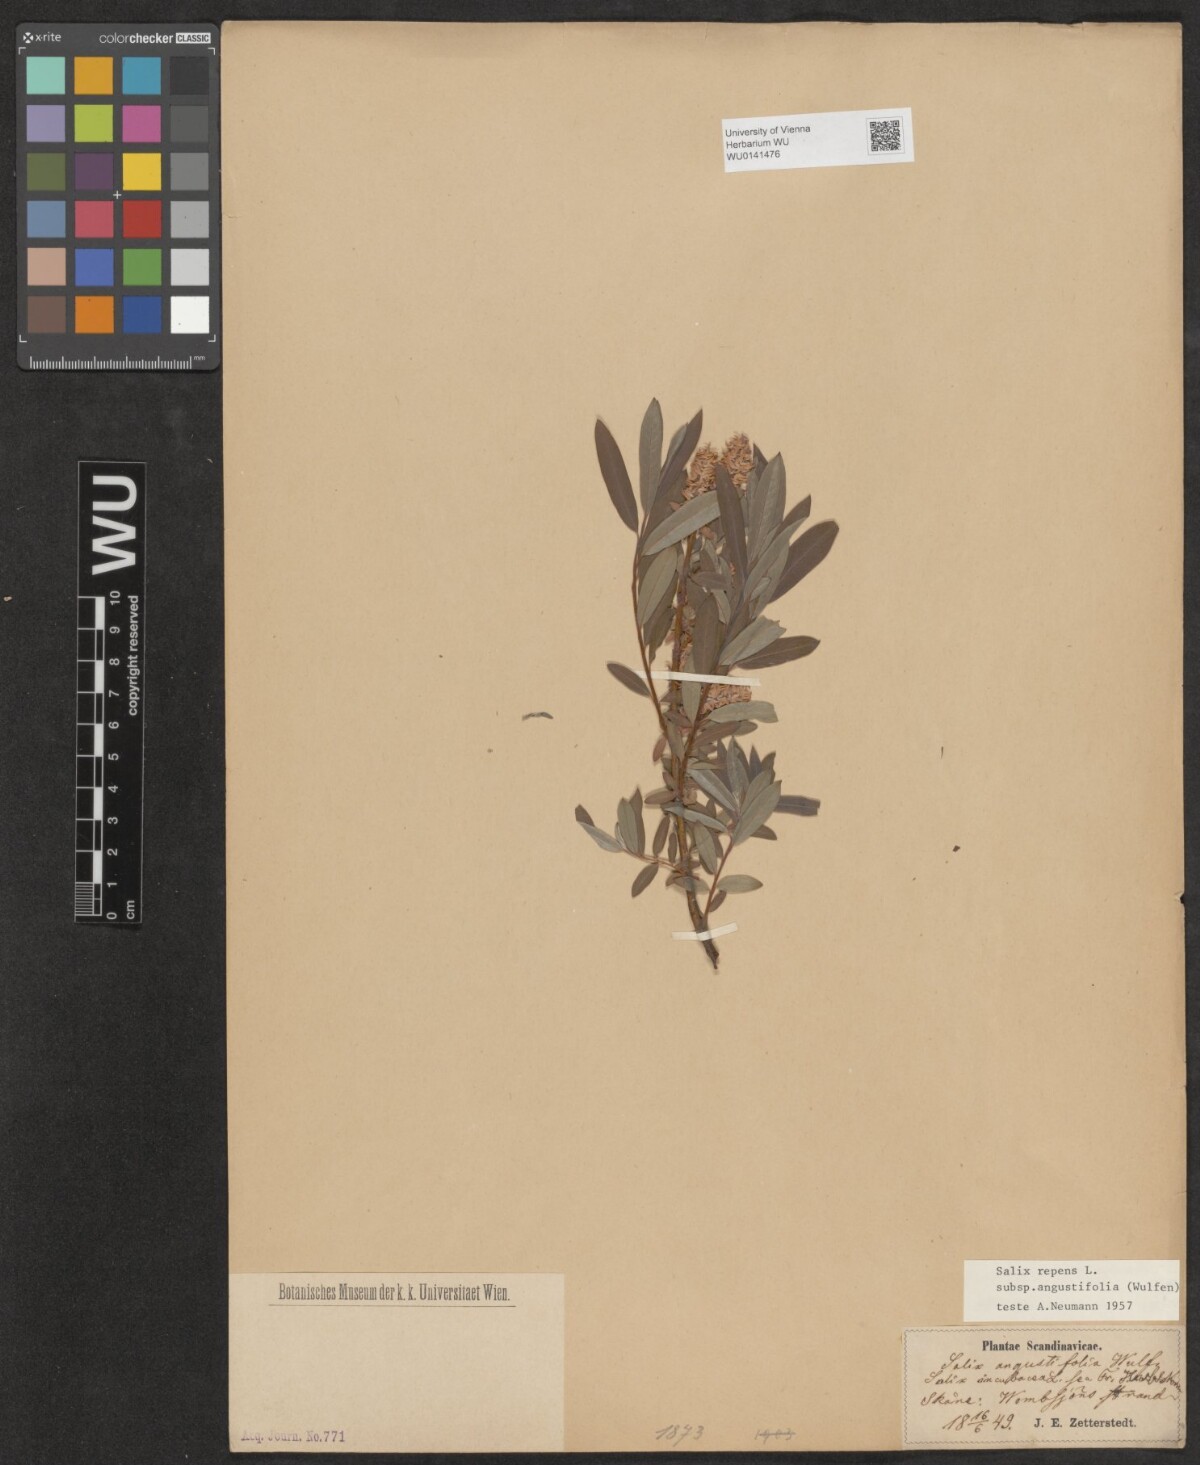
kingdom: Plantae
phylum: Tracheophyta
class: Magnoliopsida
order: Malpighiales
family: Salicaceae
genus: Salix
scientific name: Salix rosmarinifolia
